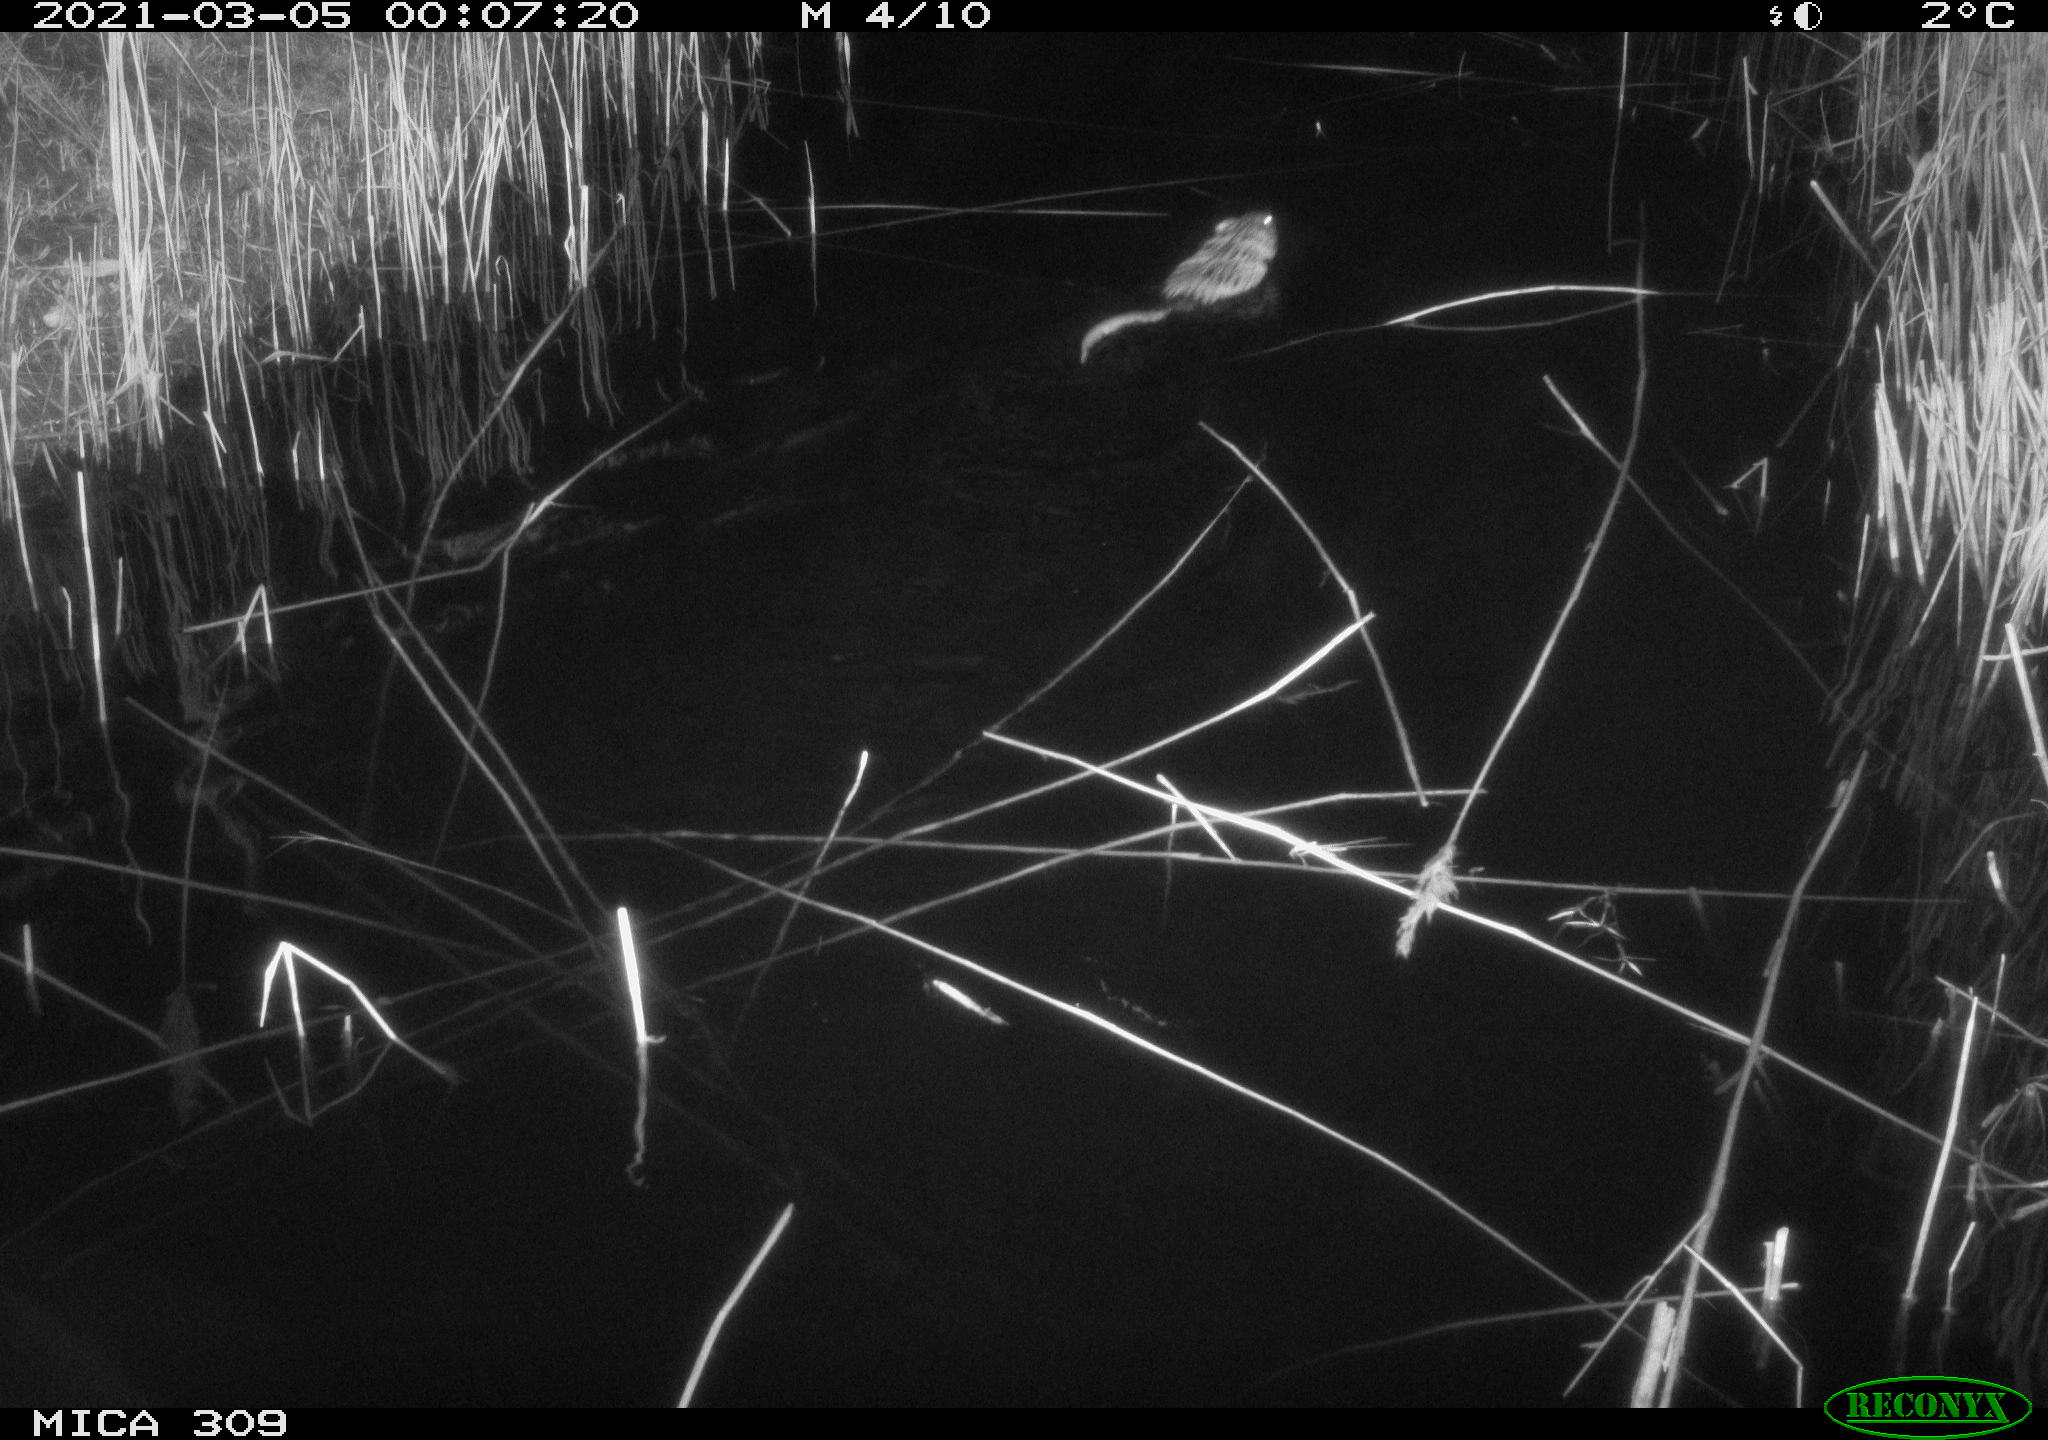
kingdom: Animalia
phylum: Chordata
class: Mammalia
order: Rodentia
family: Cricetidae
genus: Ondatra
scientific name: Ondatra zibethicus
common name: Muskrat
